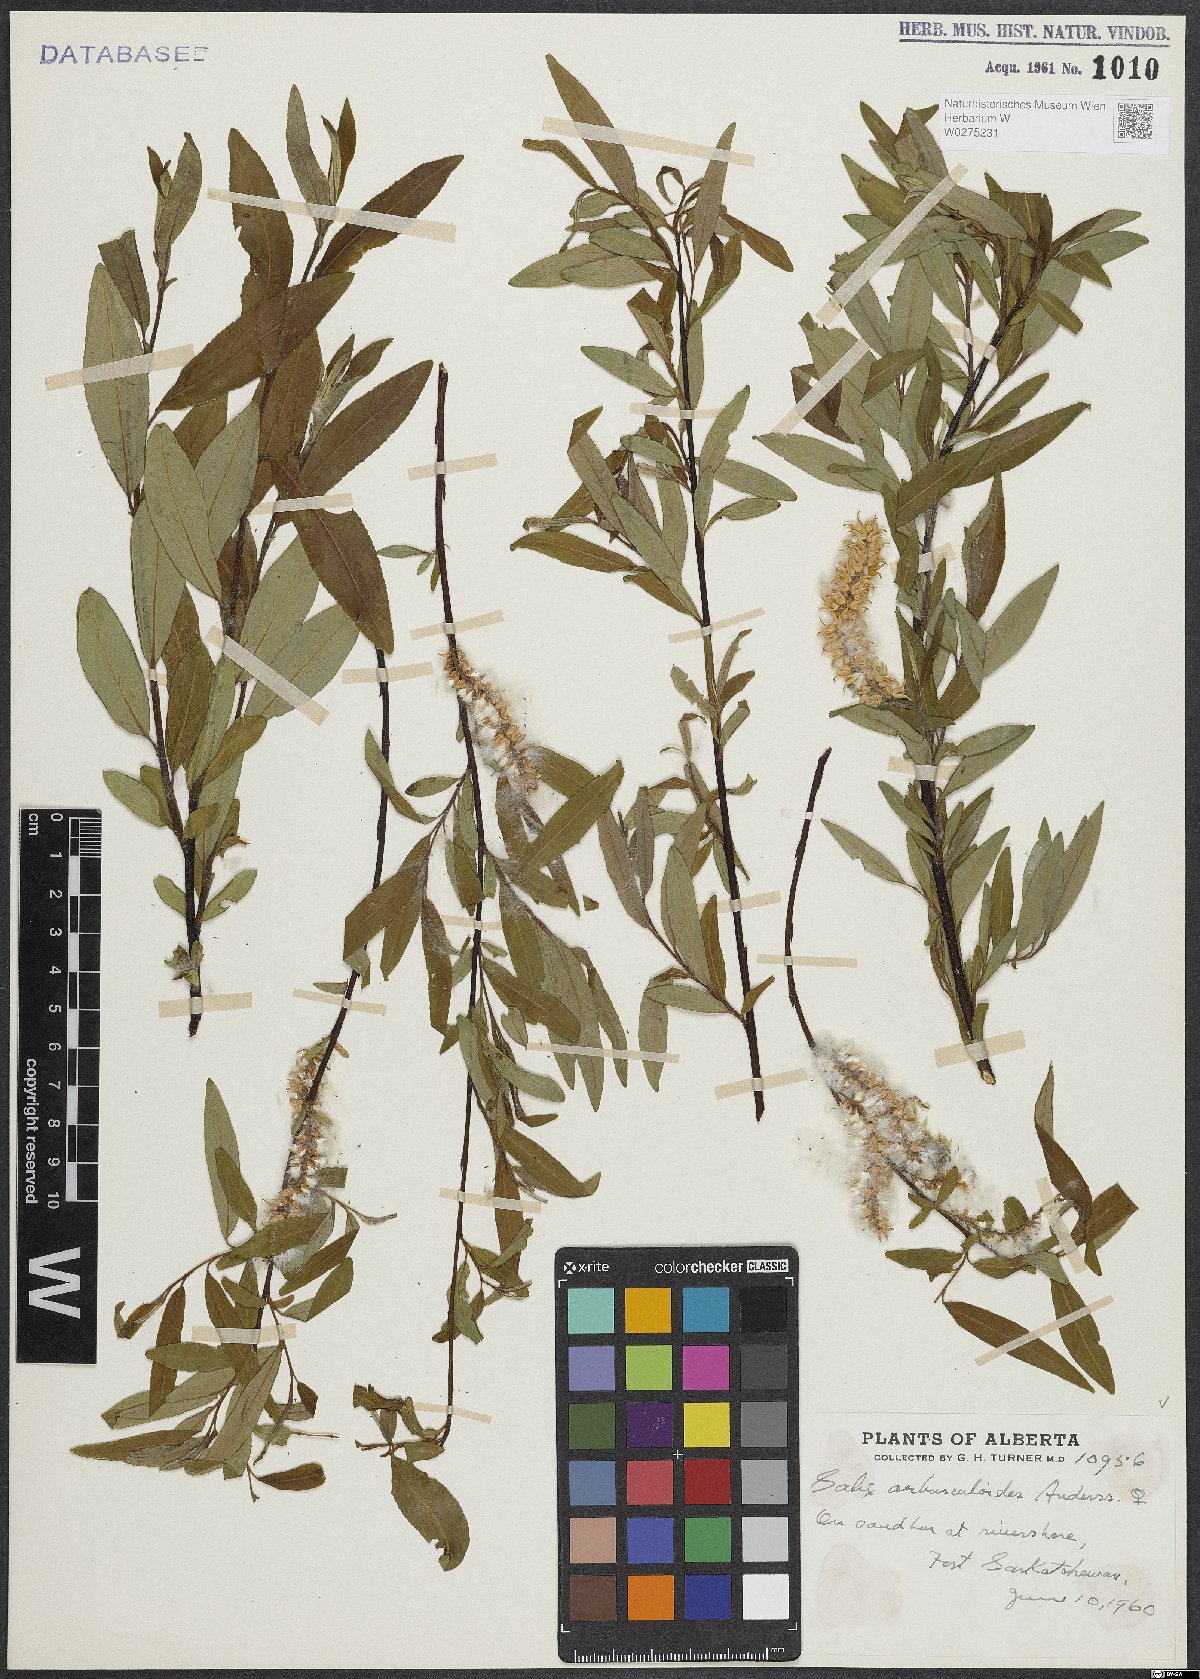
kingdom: Plantae
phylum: Tracheophyta
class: Magnoliopsida
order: Malpighiales
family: Salicaceae
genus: Salix
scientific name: Salix arbusculoides
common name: Little-tree willow
